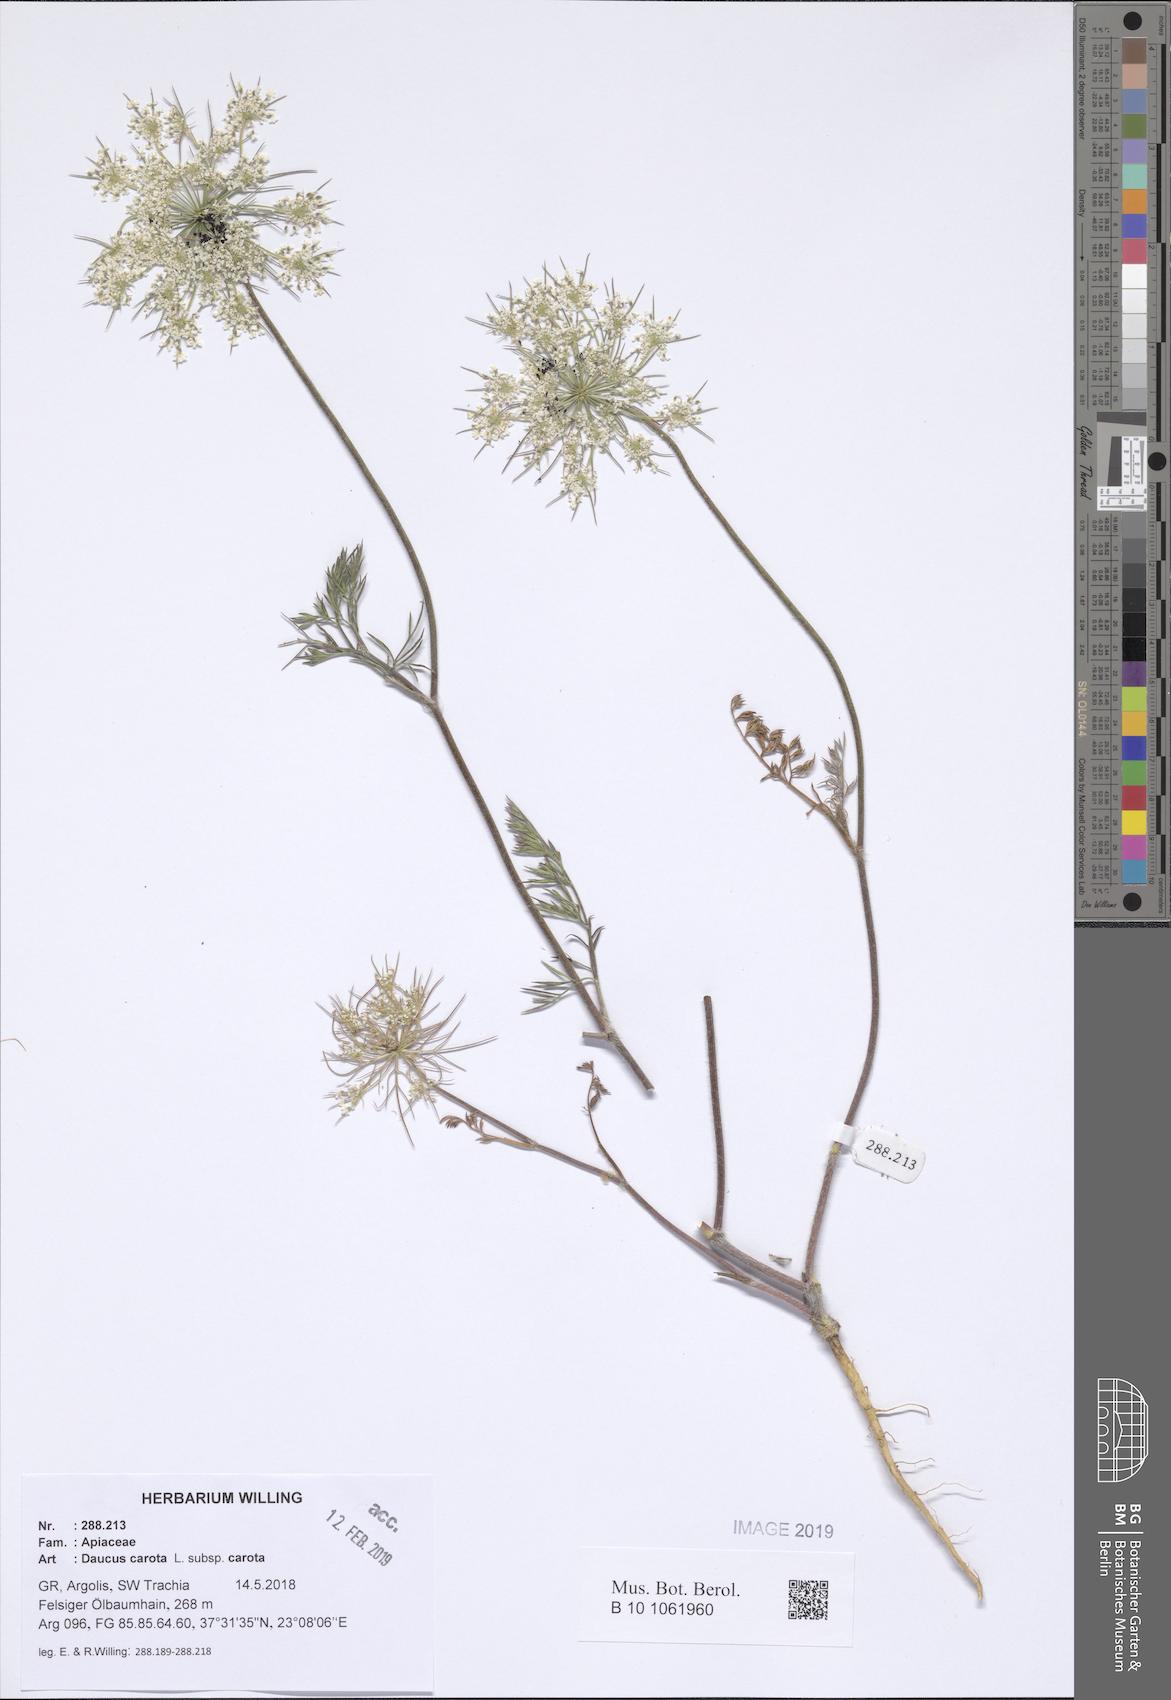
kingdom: Plantae
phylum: Tracheophyta
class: Magnoliopsida
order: Apiales
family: Apiaceae
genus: Daucus
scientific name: Daucus carota
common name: Wild carrot
